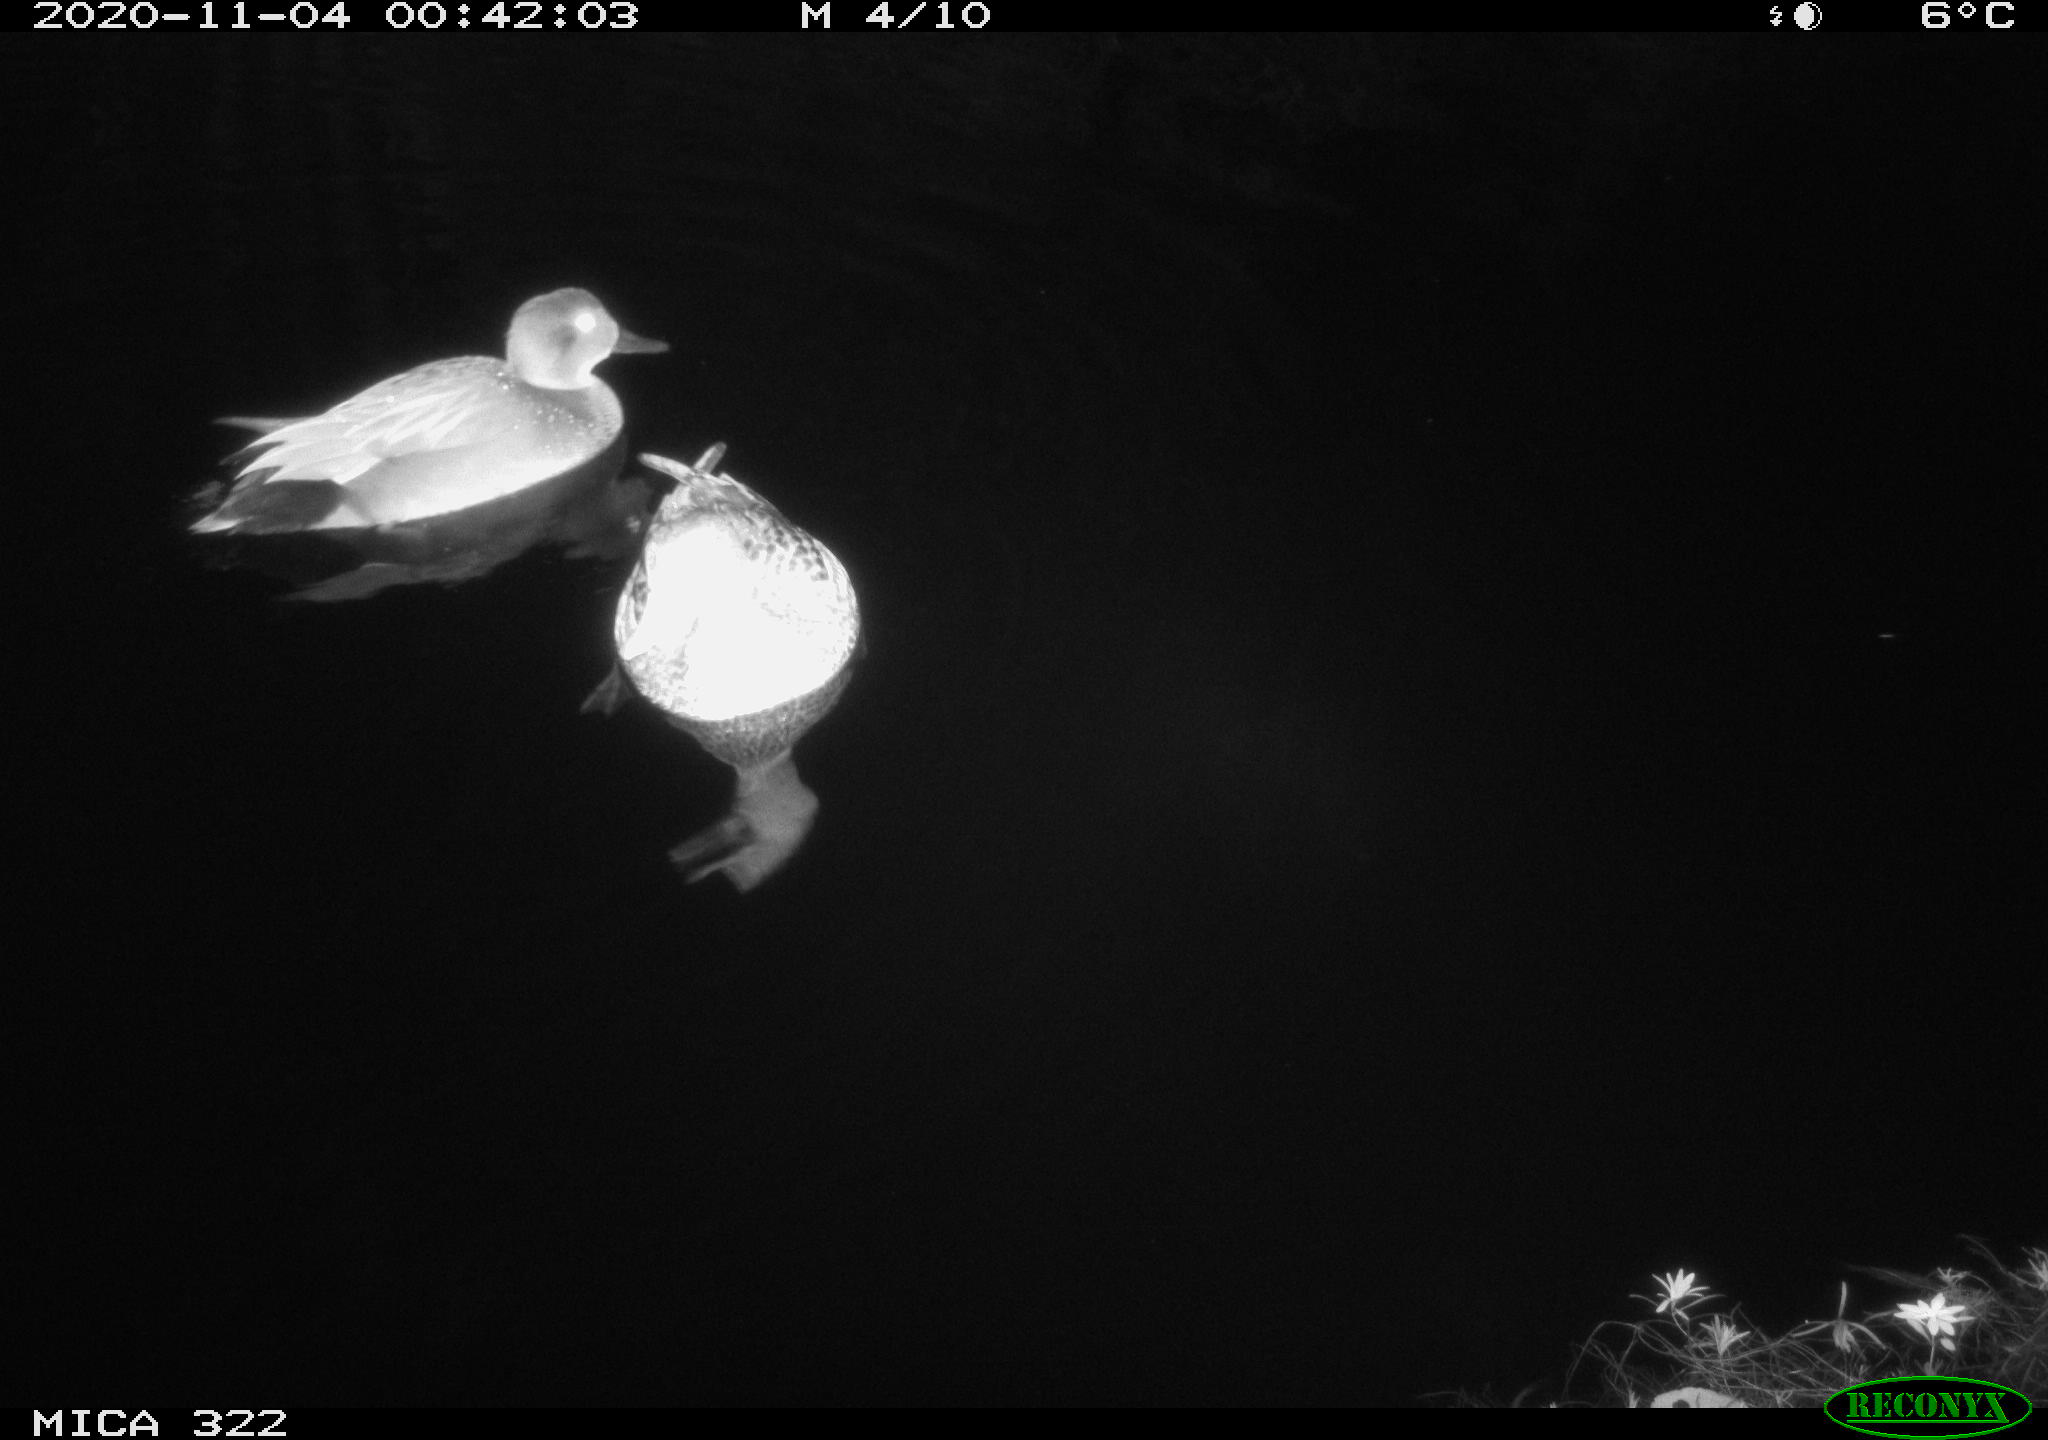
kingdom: Animalia
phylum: Chordata
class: Aves
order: Anseriformes
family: Anatidae
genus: Mareca
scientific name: Mareca strepera
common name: Gadwall
